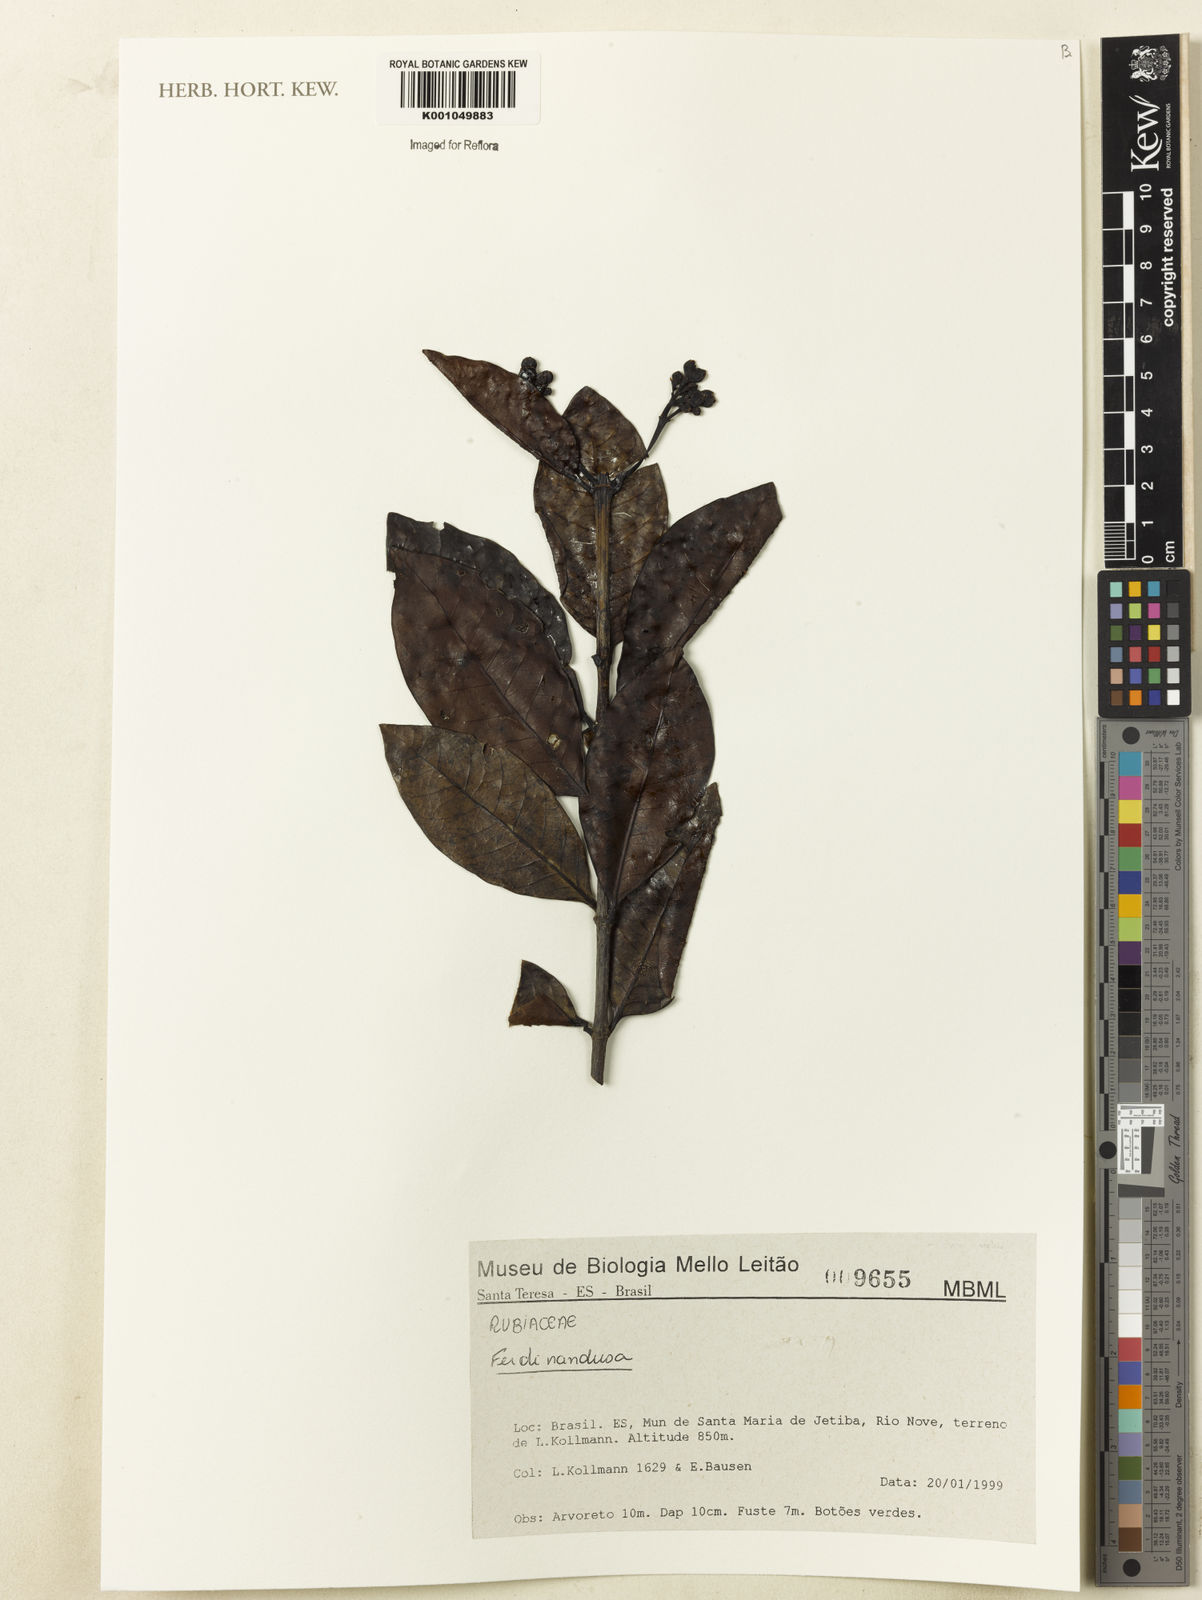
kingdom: Plantae
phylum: Tracheophyta
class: Magnoliopsida
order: Gentianales
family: Rubiaceae
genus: Ferdinandusa
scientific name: Ferdinandusa
